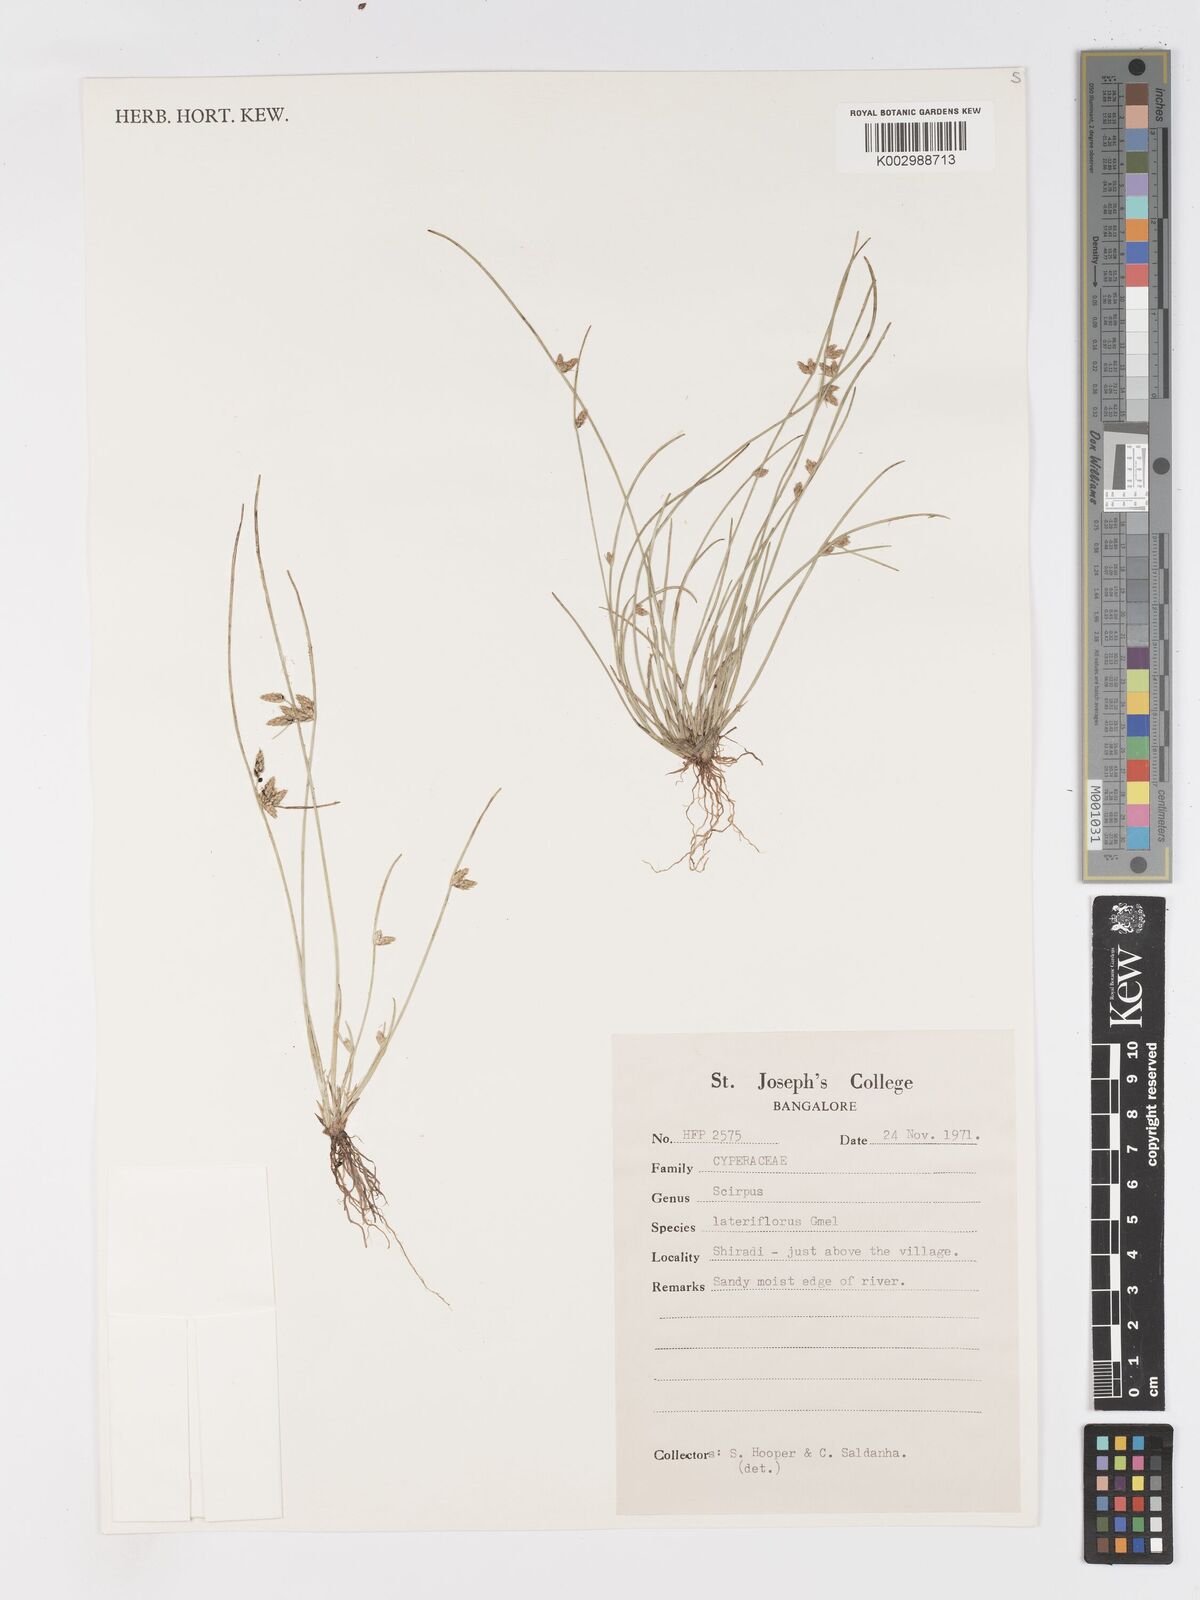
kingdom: Plantae
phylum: Tracheophyta
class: Liliopsida
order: Poales
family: Cyperaceae
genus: Schoenoplectiella
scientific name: Schoenoplectiella lateriflora
